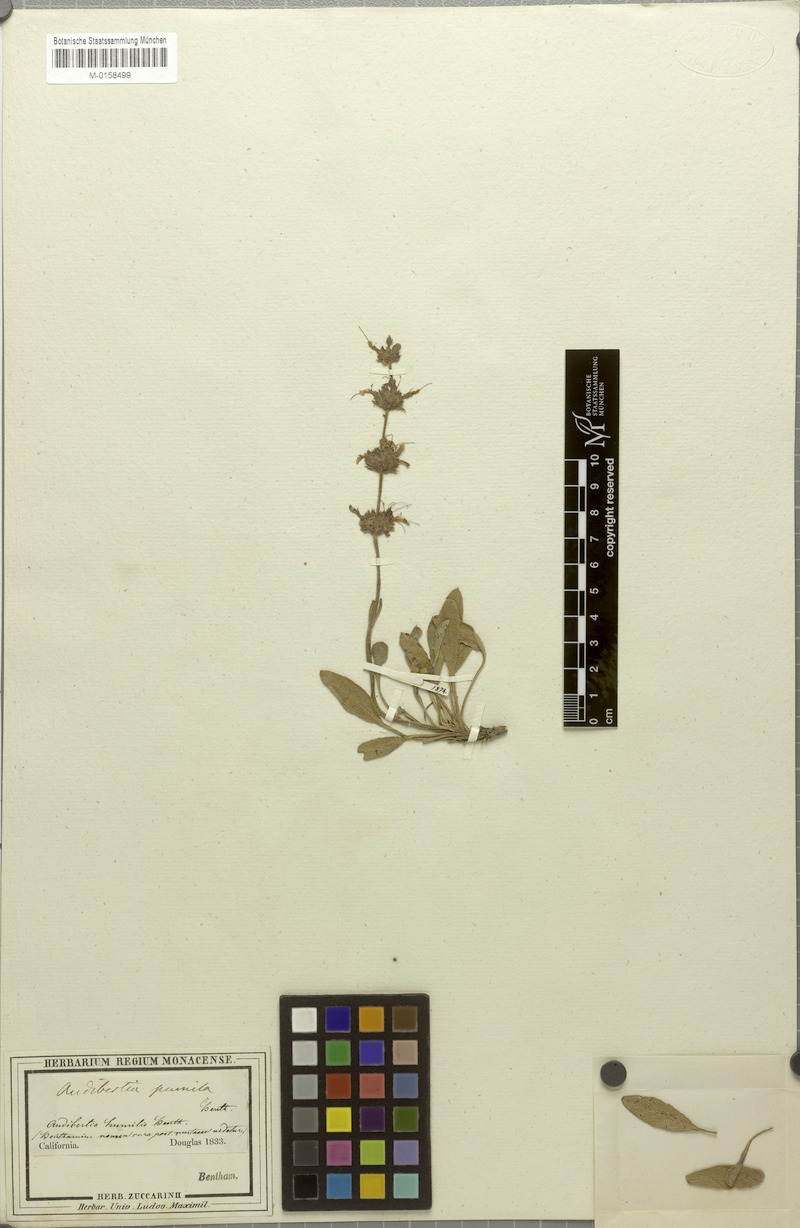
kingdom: Plantae
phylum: Tracheophyta
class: Magnoliopsida
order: Lamiales
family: Lamiaceae
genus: Salvia
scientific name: Salvia sonomensis
